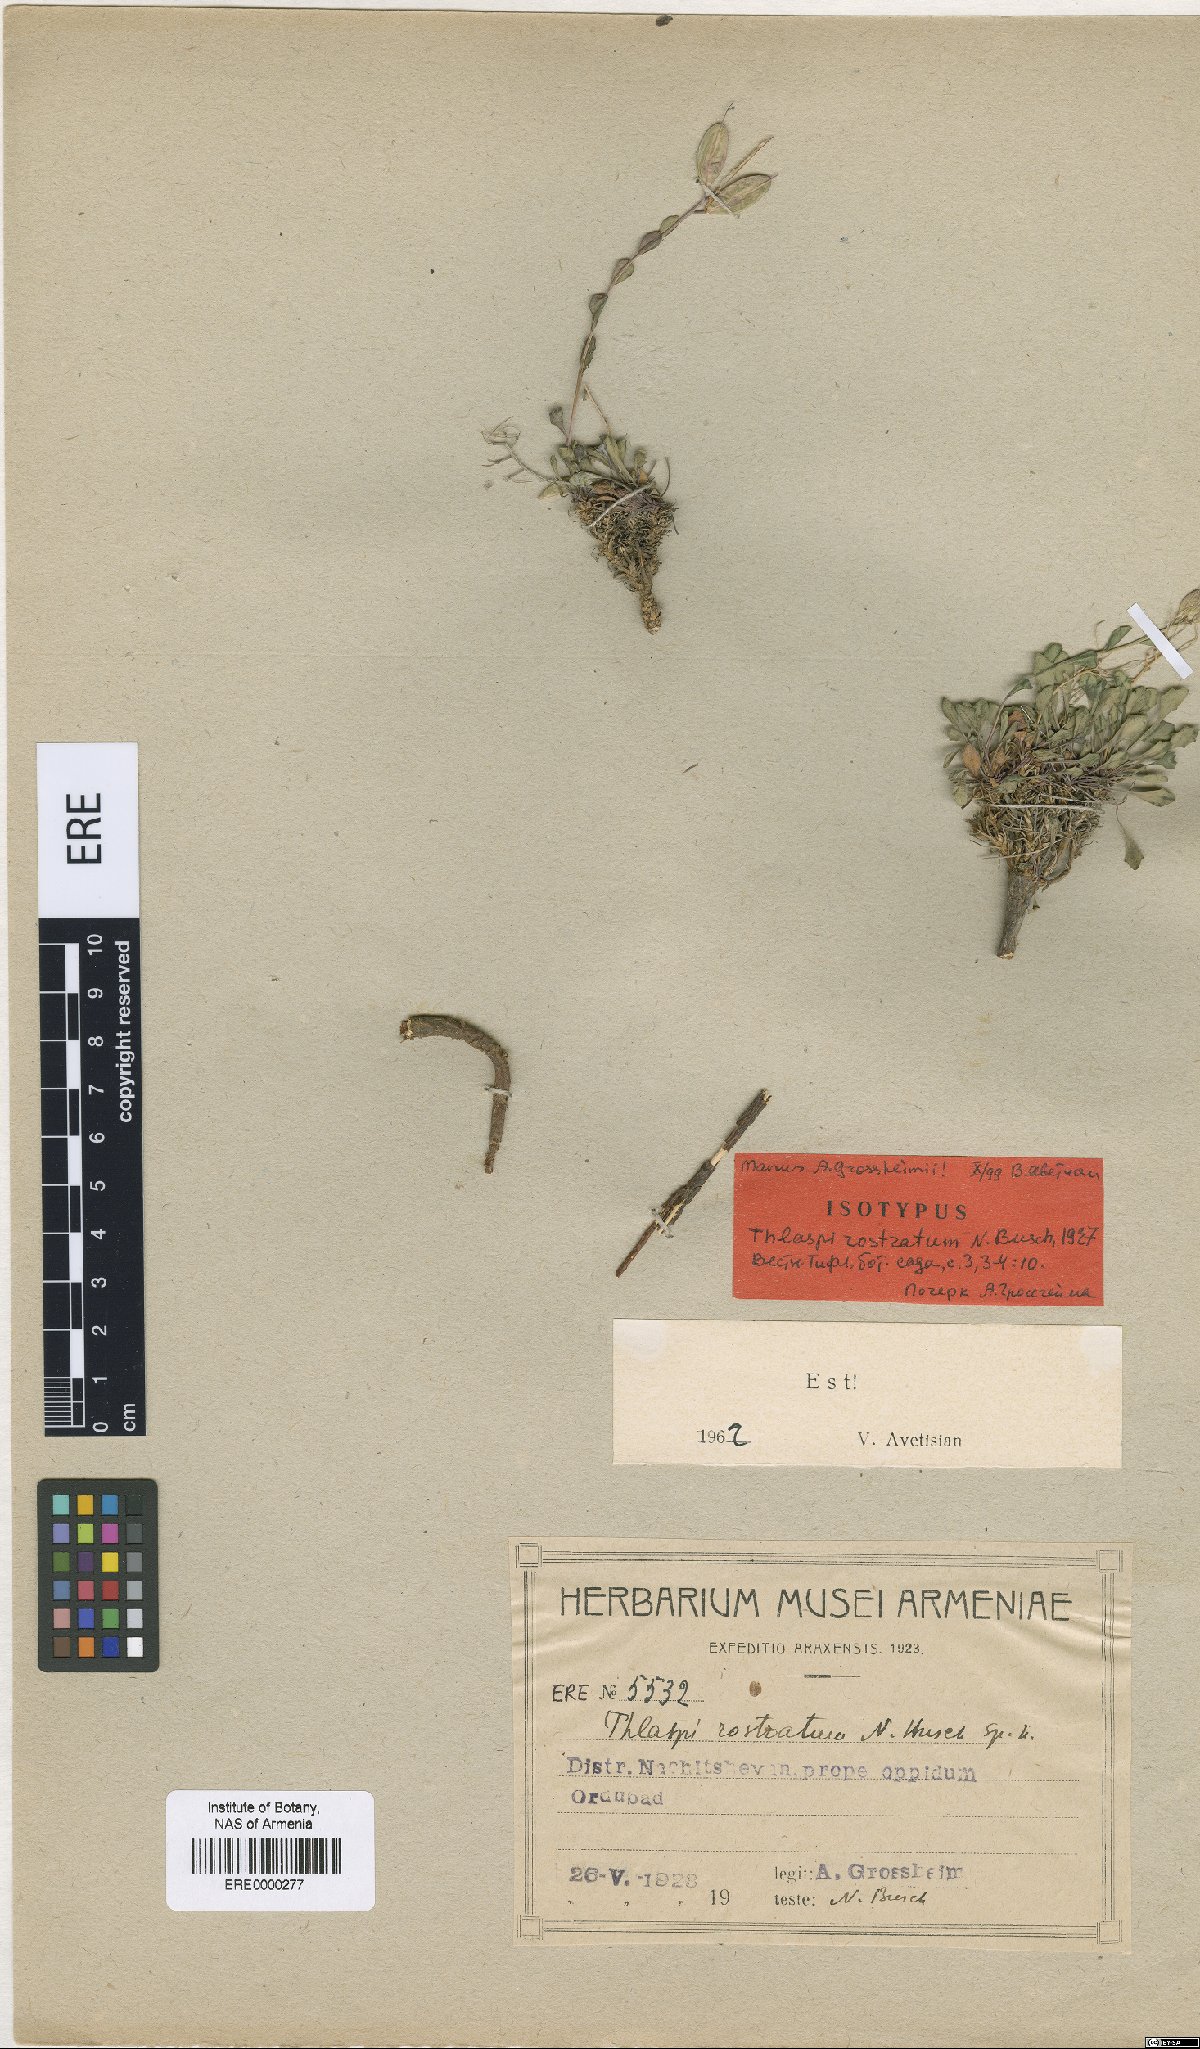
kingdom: Plantae
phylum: Tracheophyta
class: Magnoliopsida
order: Brassicales
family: Brassicaceae
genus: Noccaea
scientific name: Noccaea rostrata
